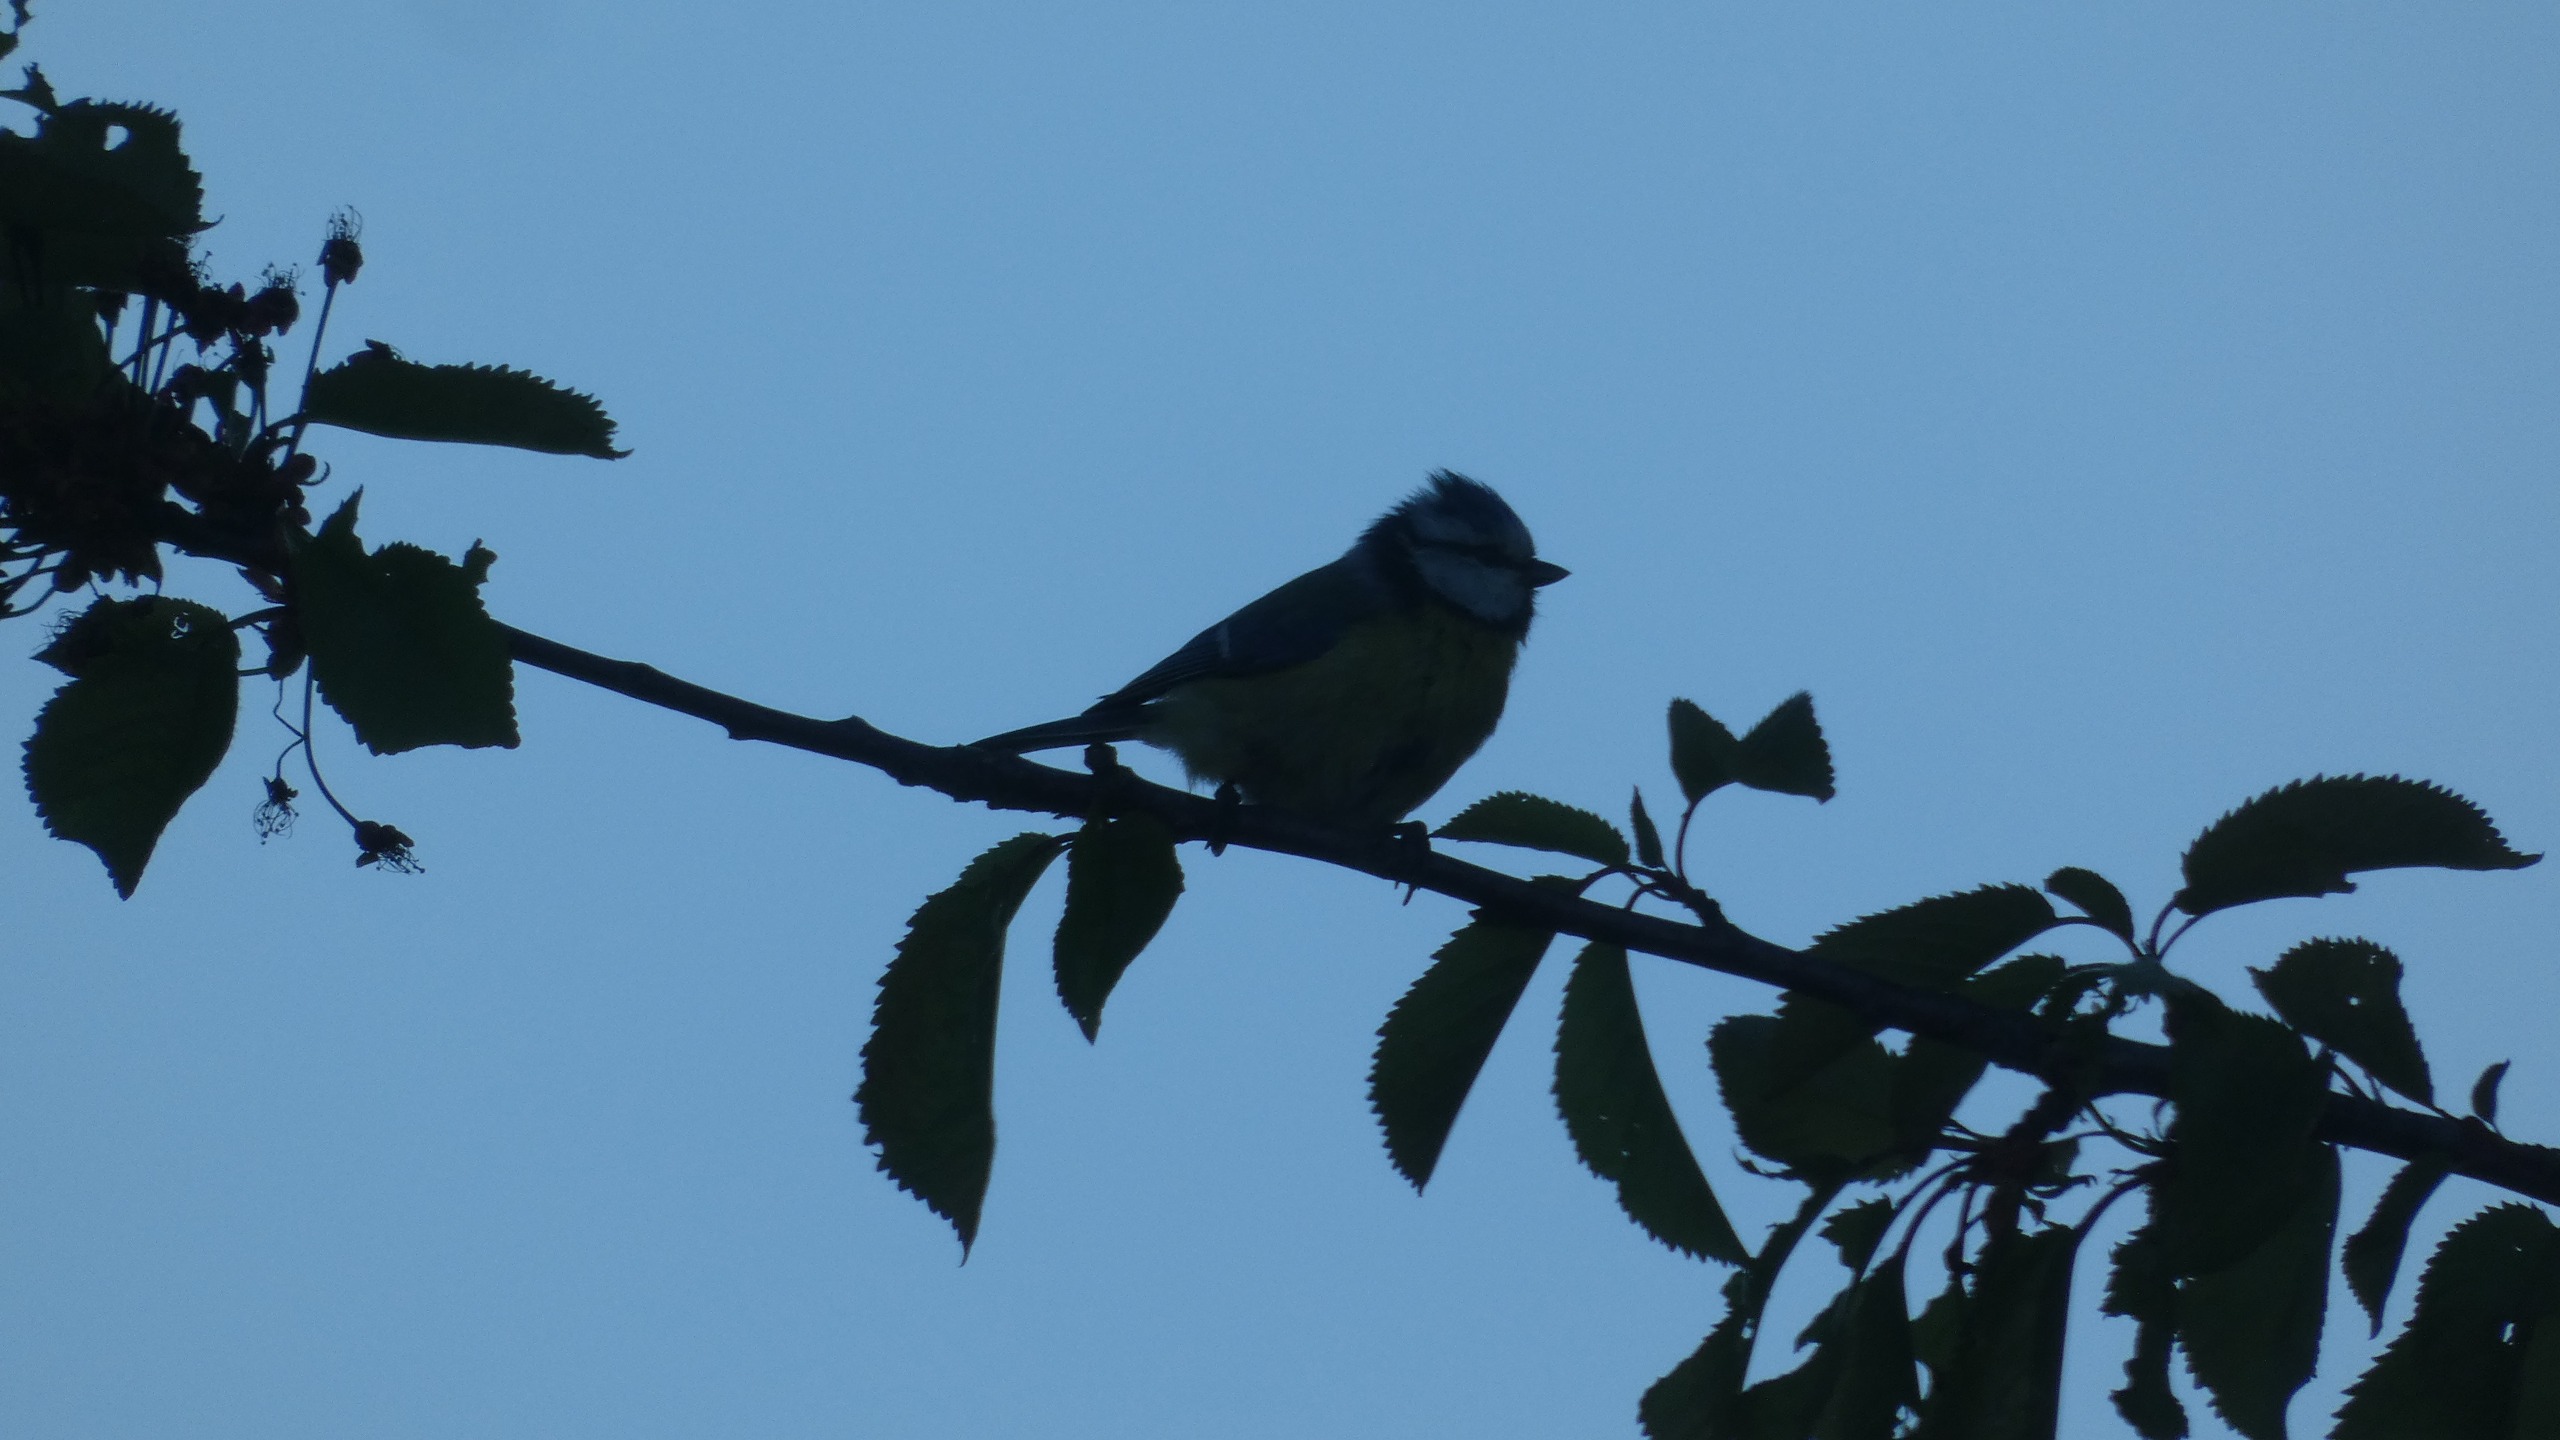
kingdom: Animalia
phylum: Chordata
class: Aves
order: Passeriformes
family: Paridae
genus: Cyanistes
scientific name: Cyanistes caeruleus
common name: Blåmejse
